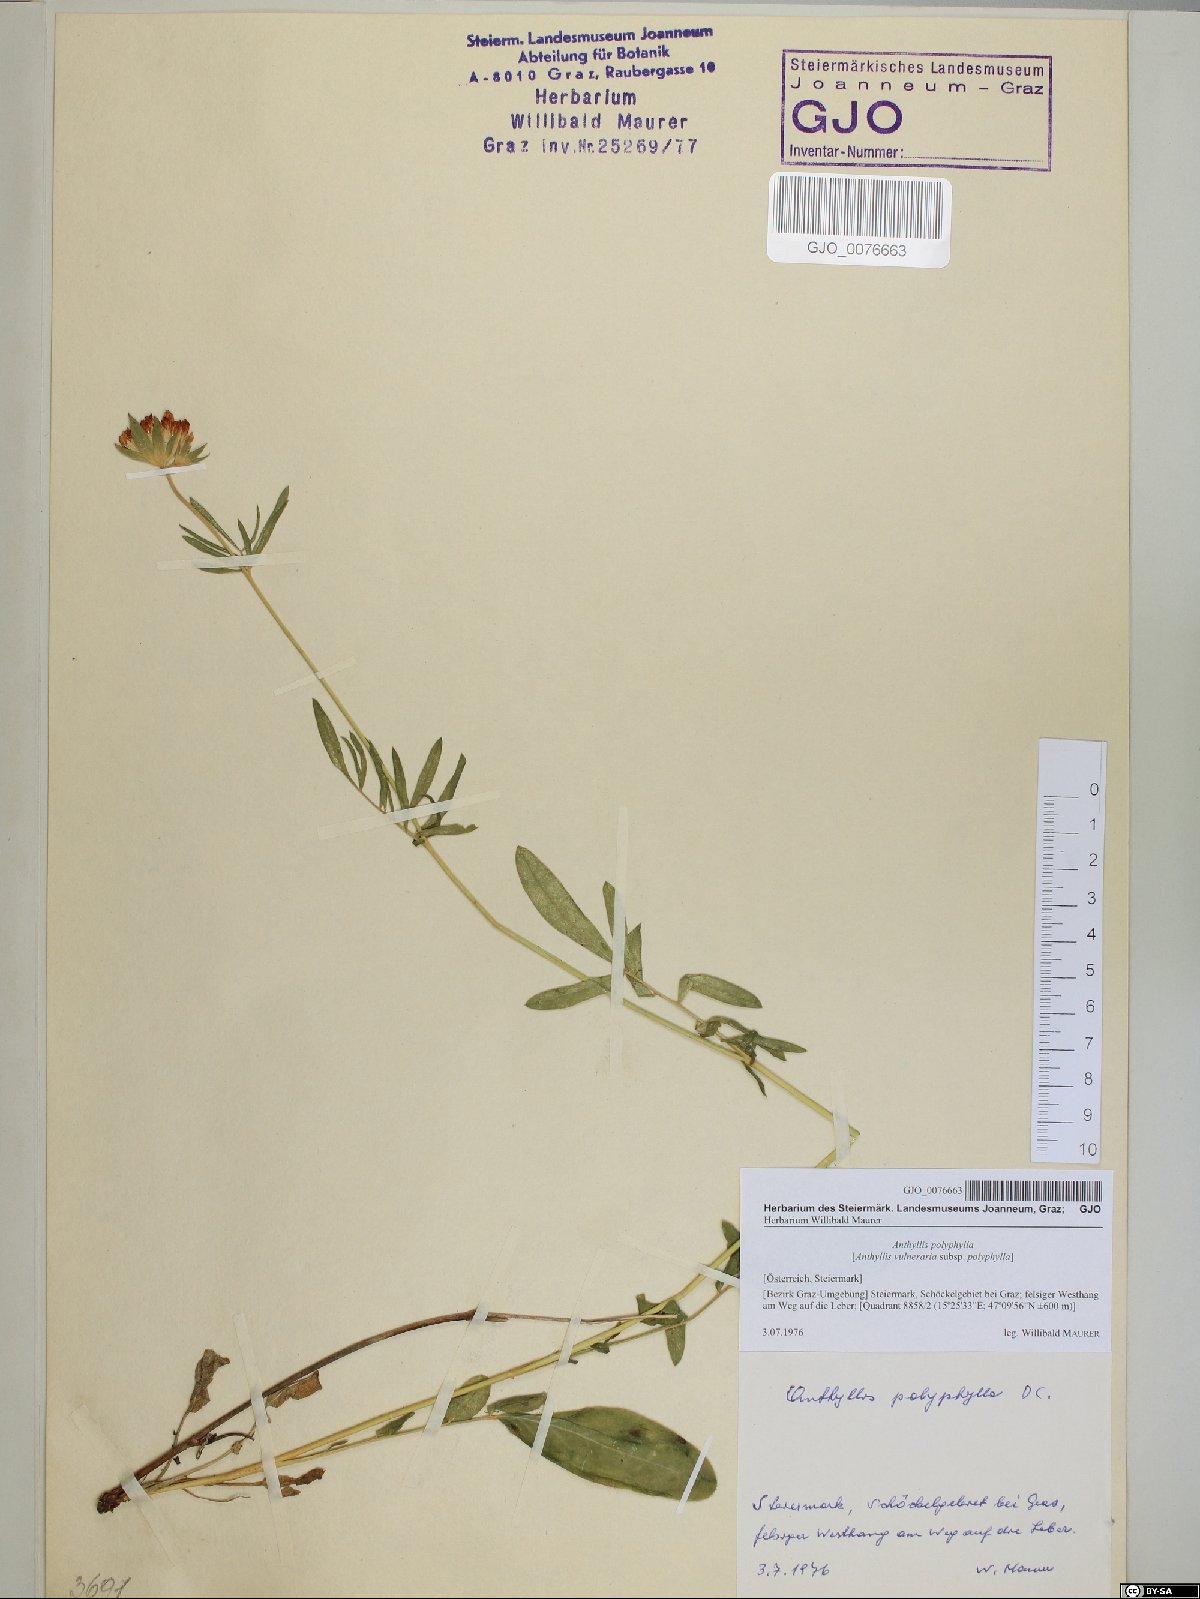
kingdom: Plantae
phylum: Tracheophyta
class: Magnoliopsida
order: Fabales
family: Fabaceae
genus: Anthyllis
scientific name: Anthyllis vulneraria
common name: Kidney vetch
